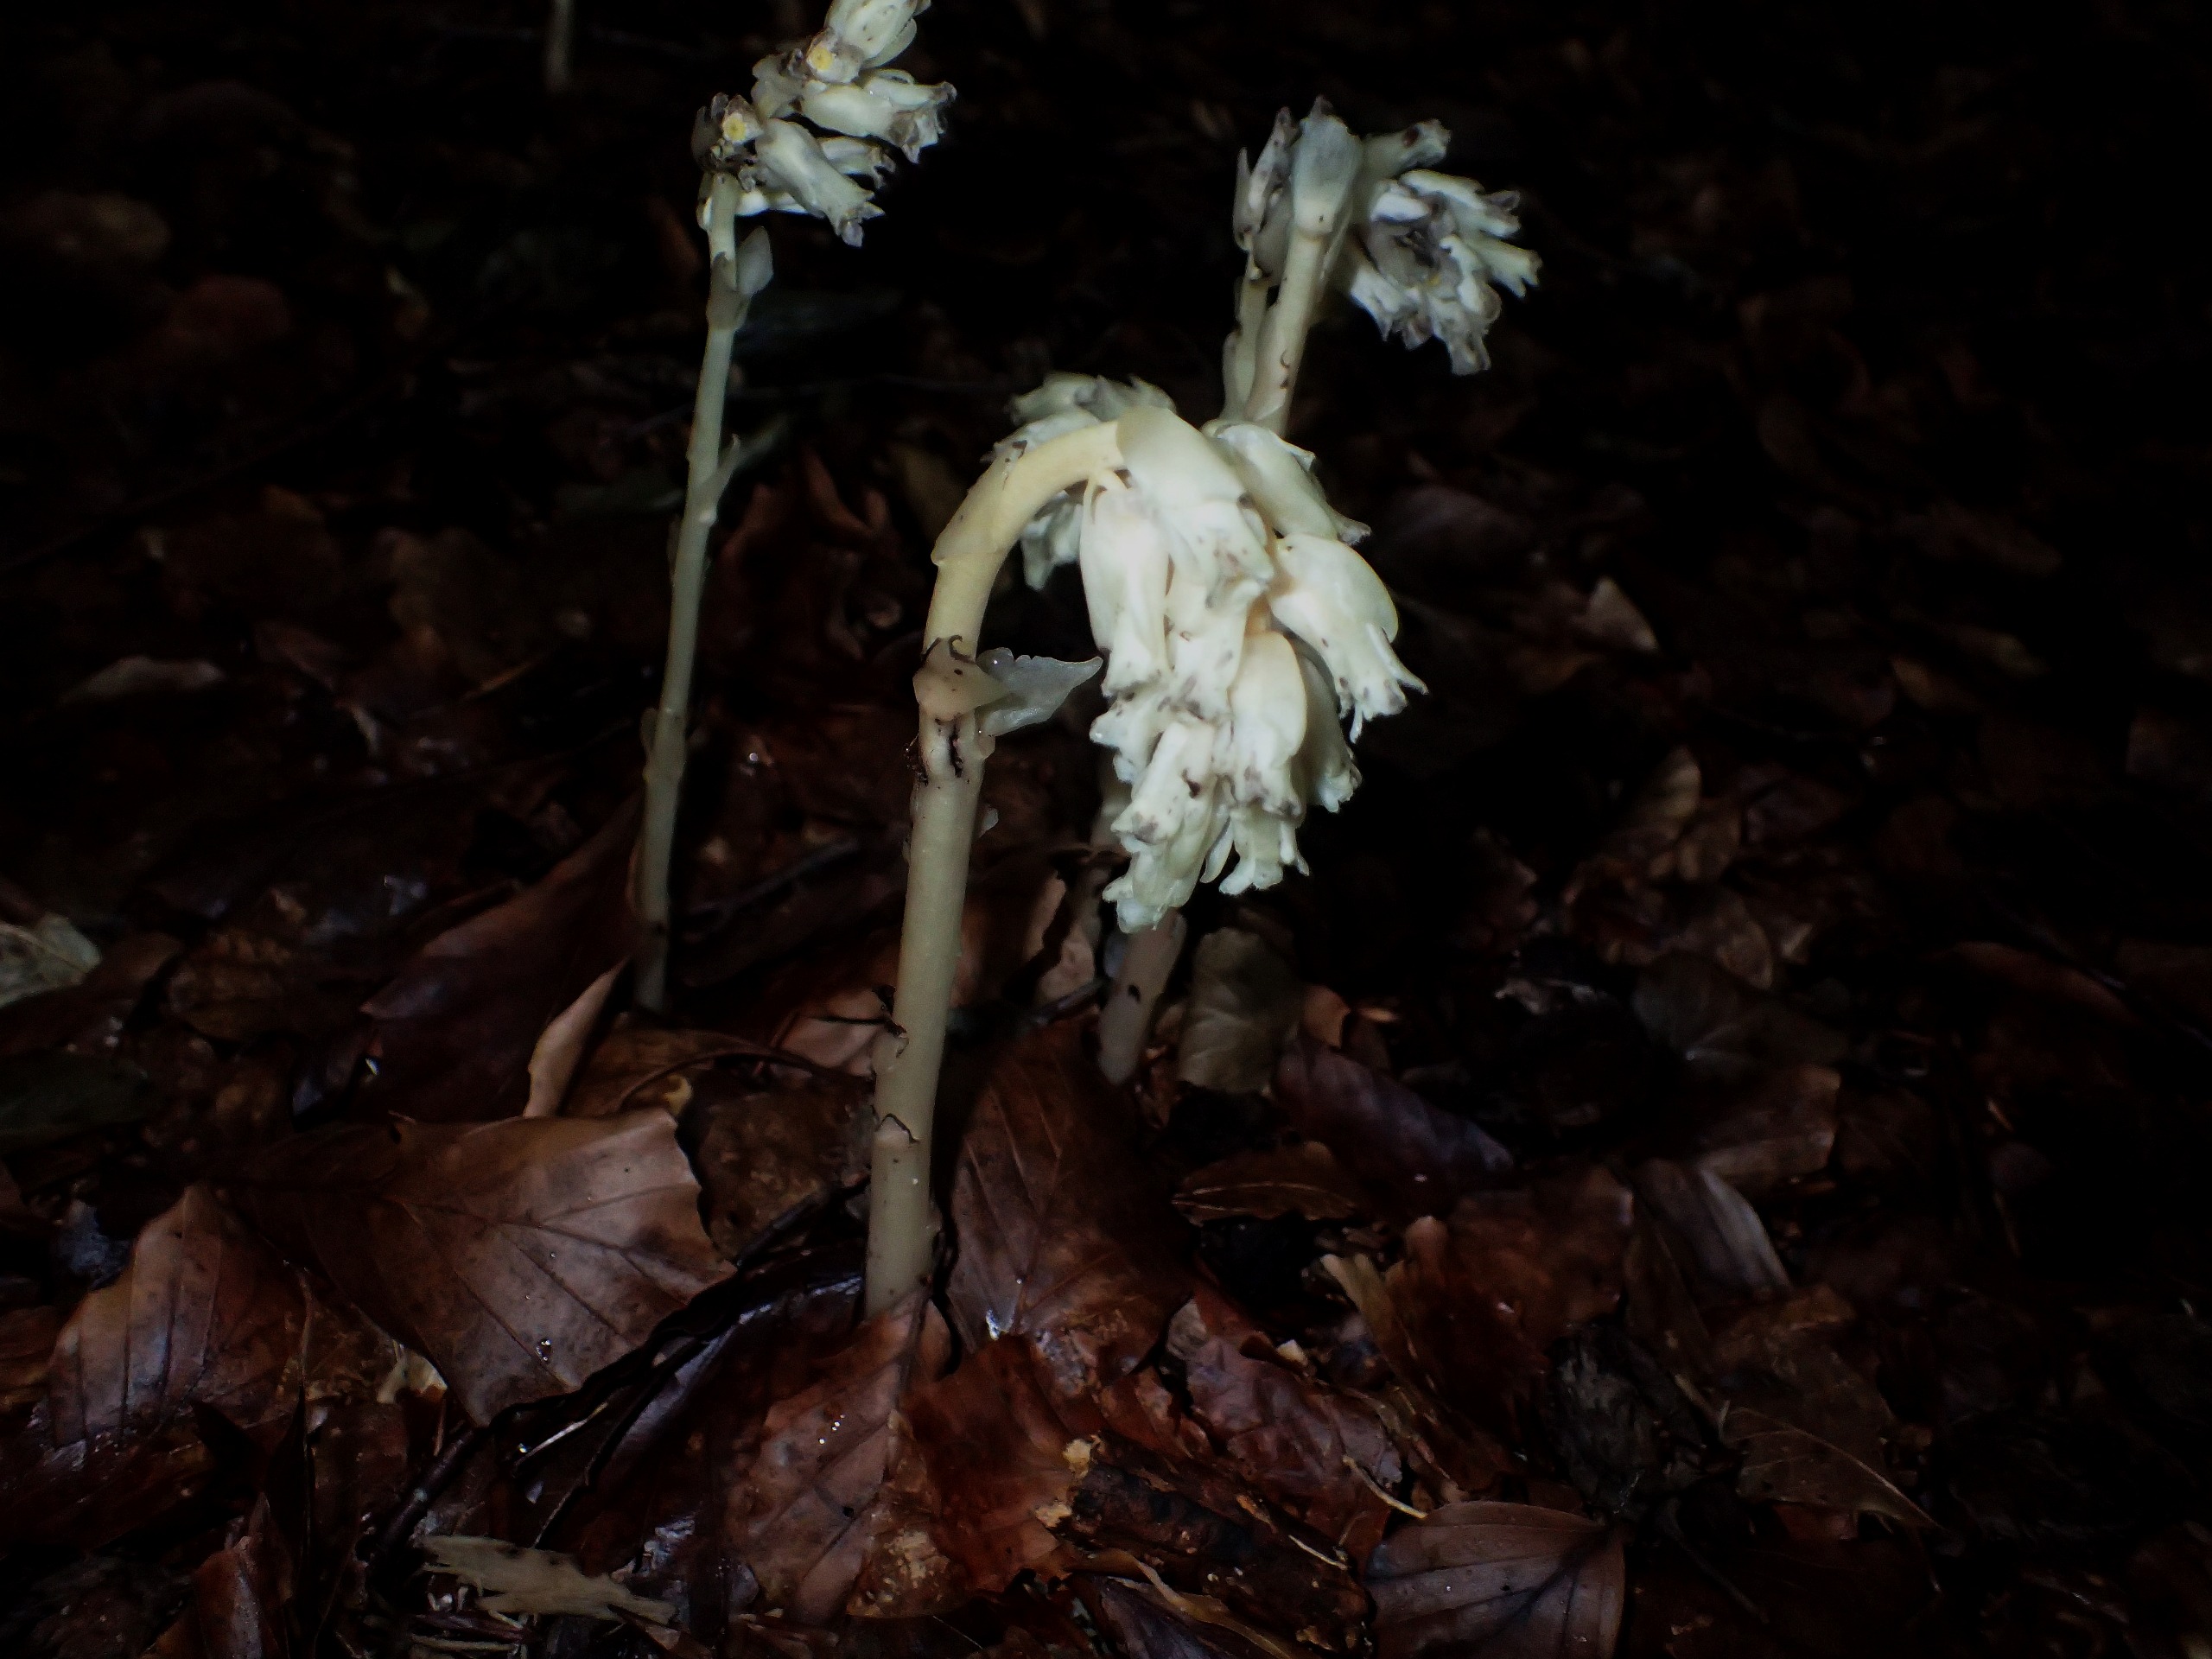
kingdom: Plantae
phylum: Tracheophyta
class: Magnoliopsida
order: Ericales
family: Ericaceae
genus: Hypopitys
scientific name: Hypopitys monotropa
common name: Håret snylterod
